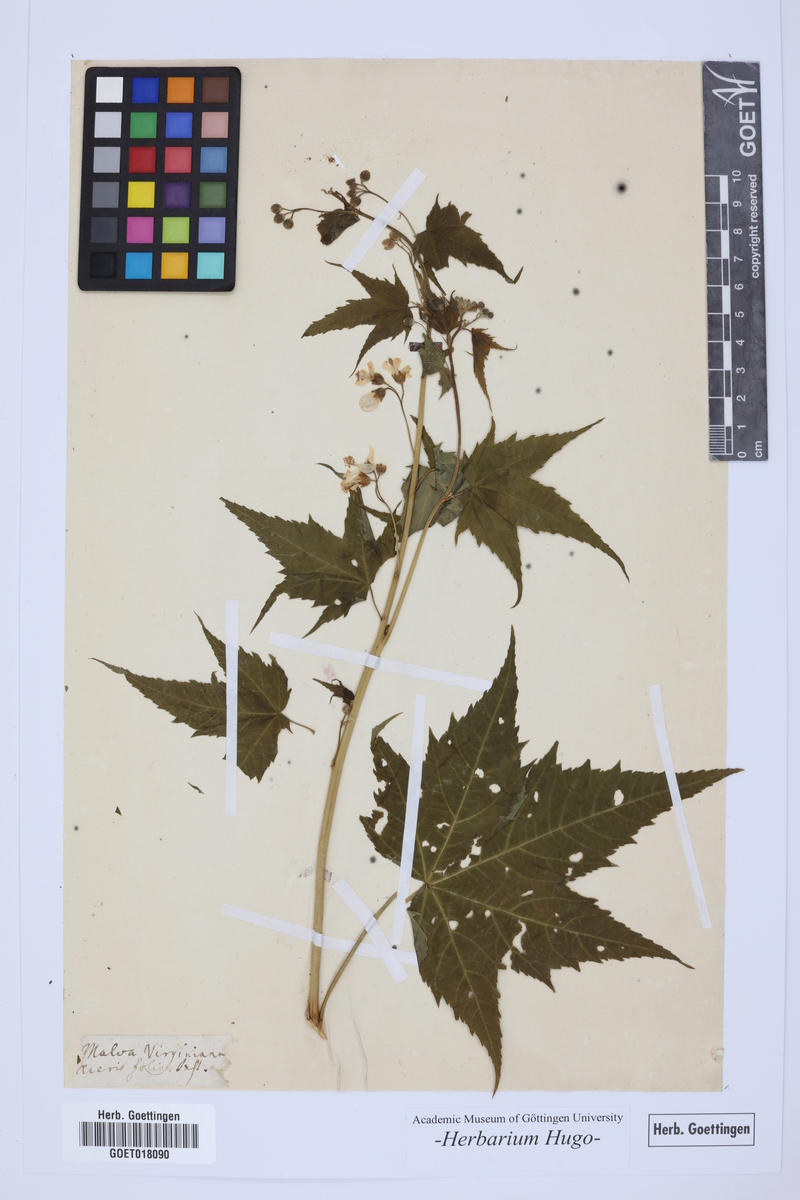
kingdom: Plantae
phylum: Tracheophyta
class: Magnoliopsida
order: Malvales
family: Malvaceae
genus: Ripariosida
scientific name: Ripariosida hermaphrodita
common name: Virginia fanpetals
